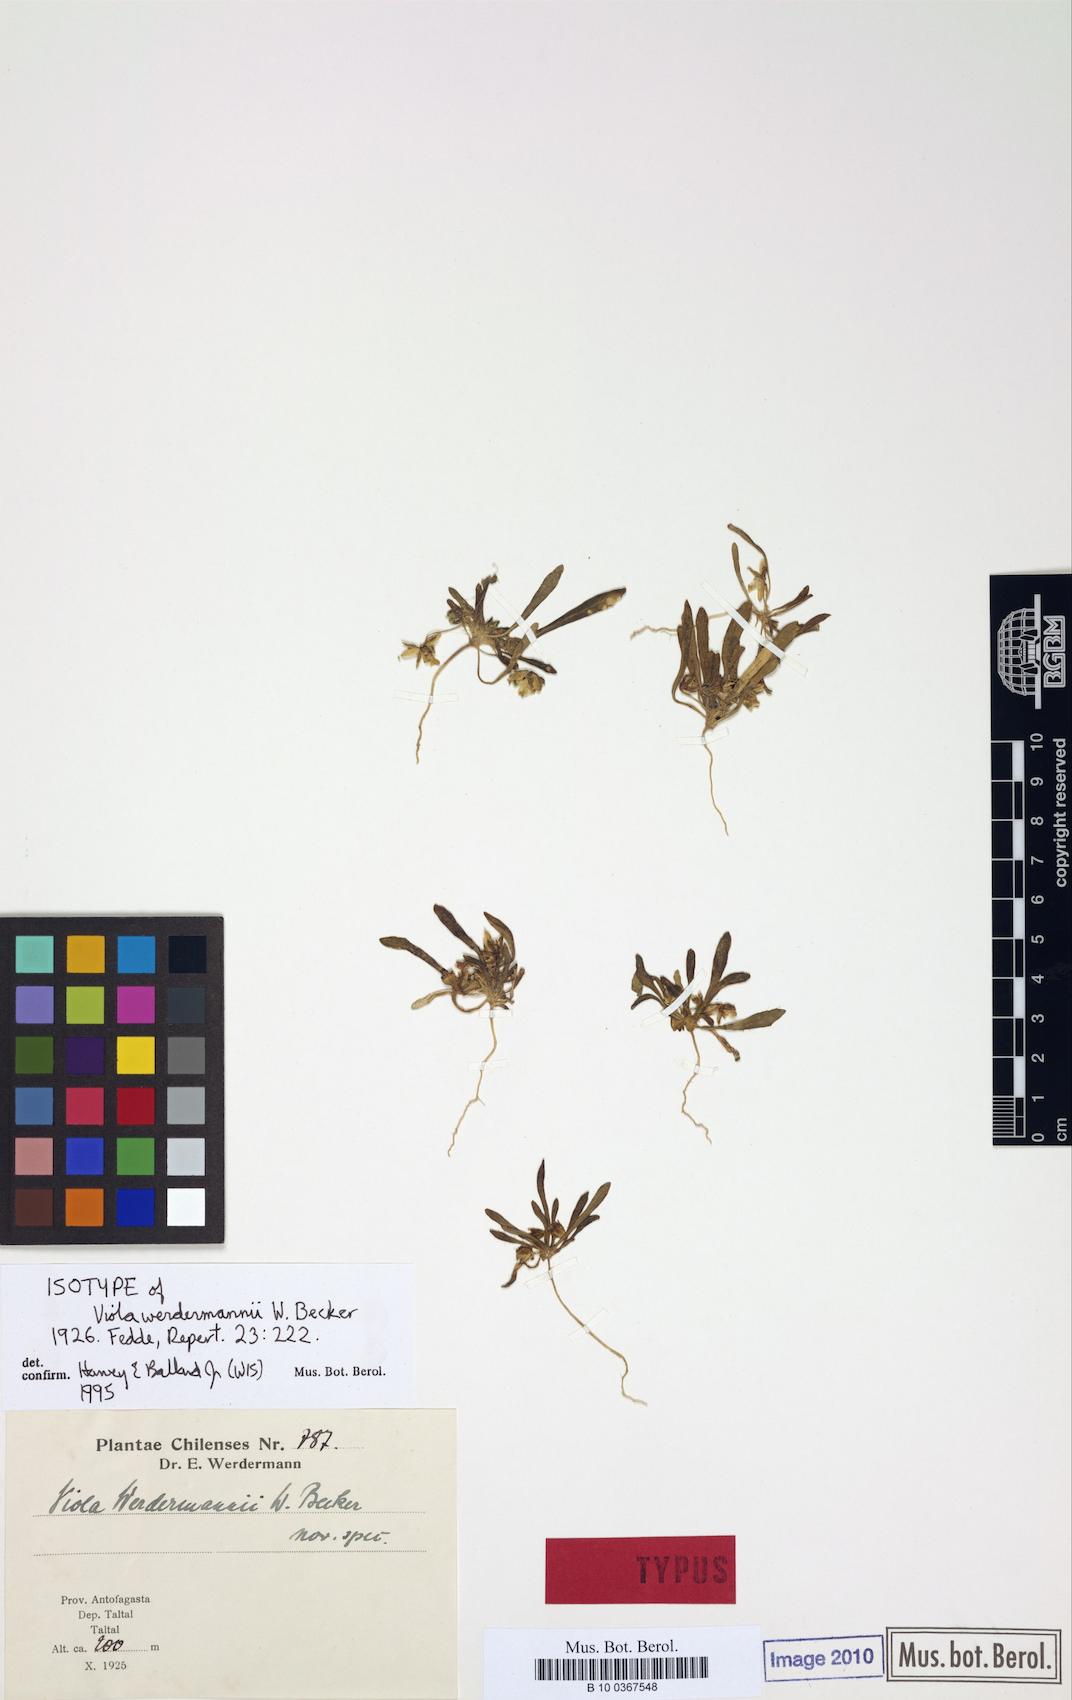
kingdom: Plantae
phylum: Tracheophyta
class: Magnoliopsida
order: Malpighiales
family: Violaceae
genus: Viola
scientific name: Viola polypoda
